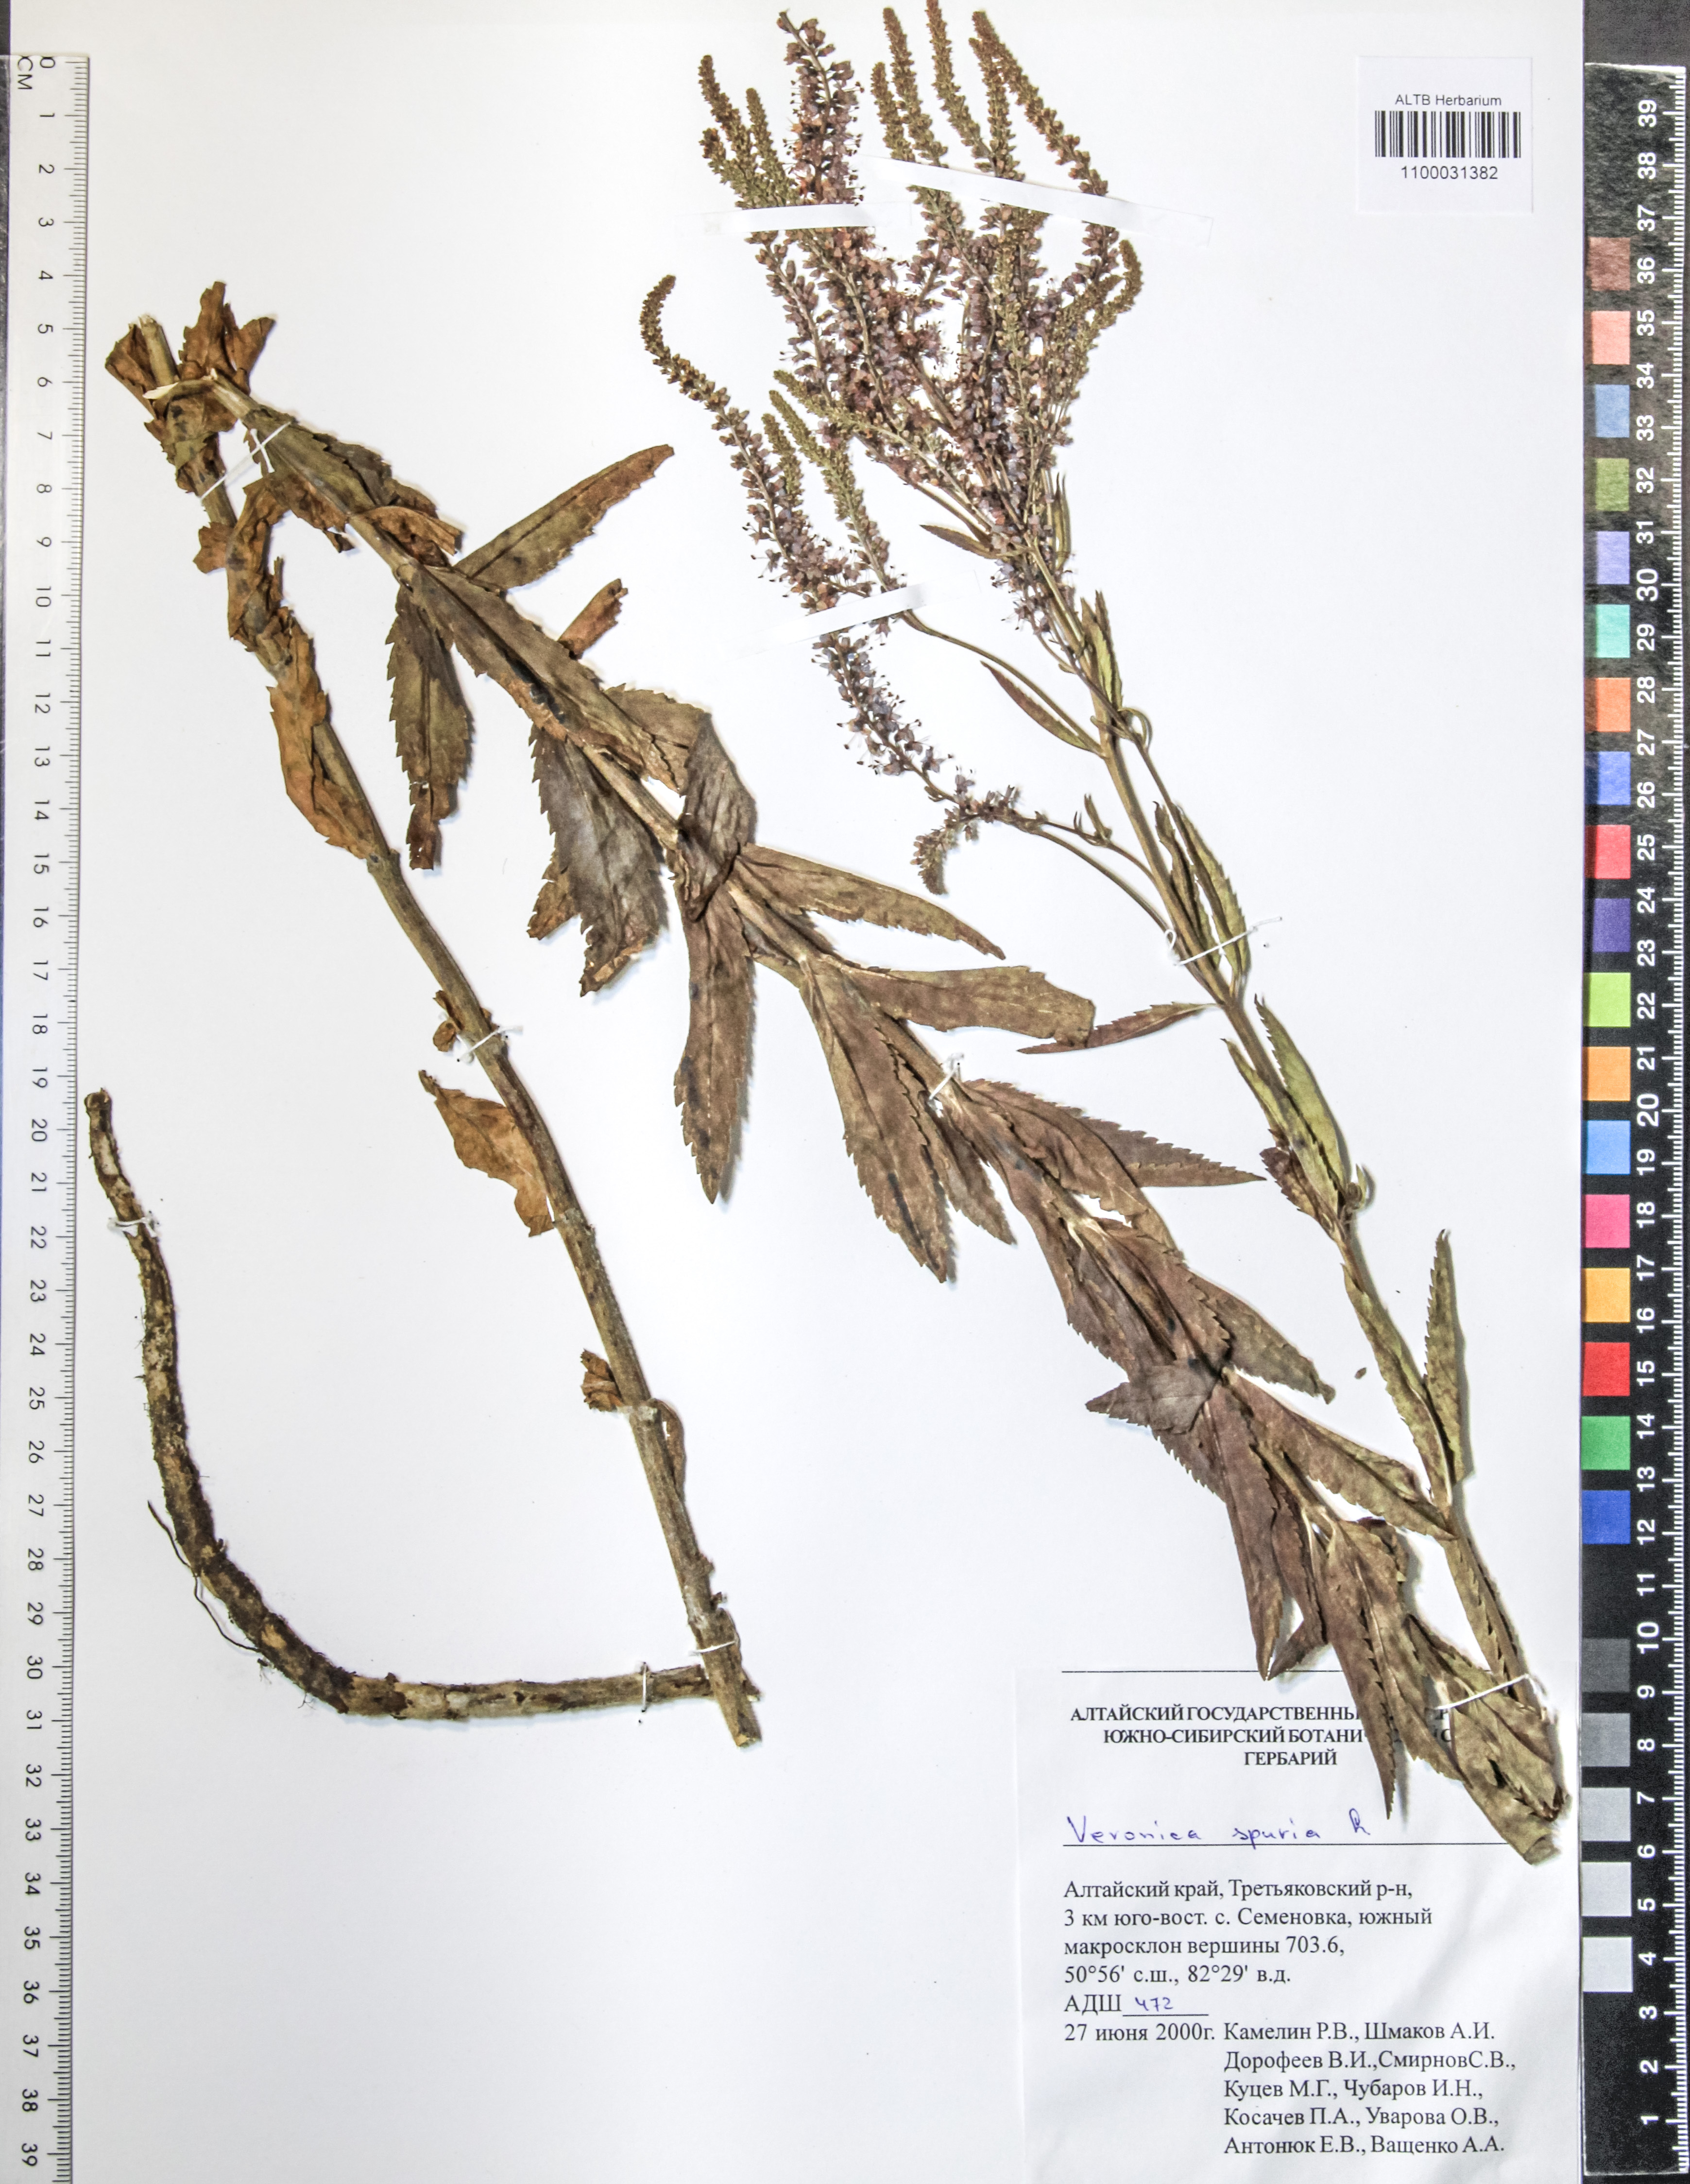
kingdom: Plantae
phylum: Tracheophyta
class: Magnoliopsida
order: Lamiales
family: Plantaginaceae
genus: Veronica
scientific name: Veronica spuria
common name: Bastard speedwell
